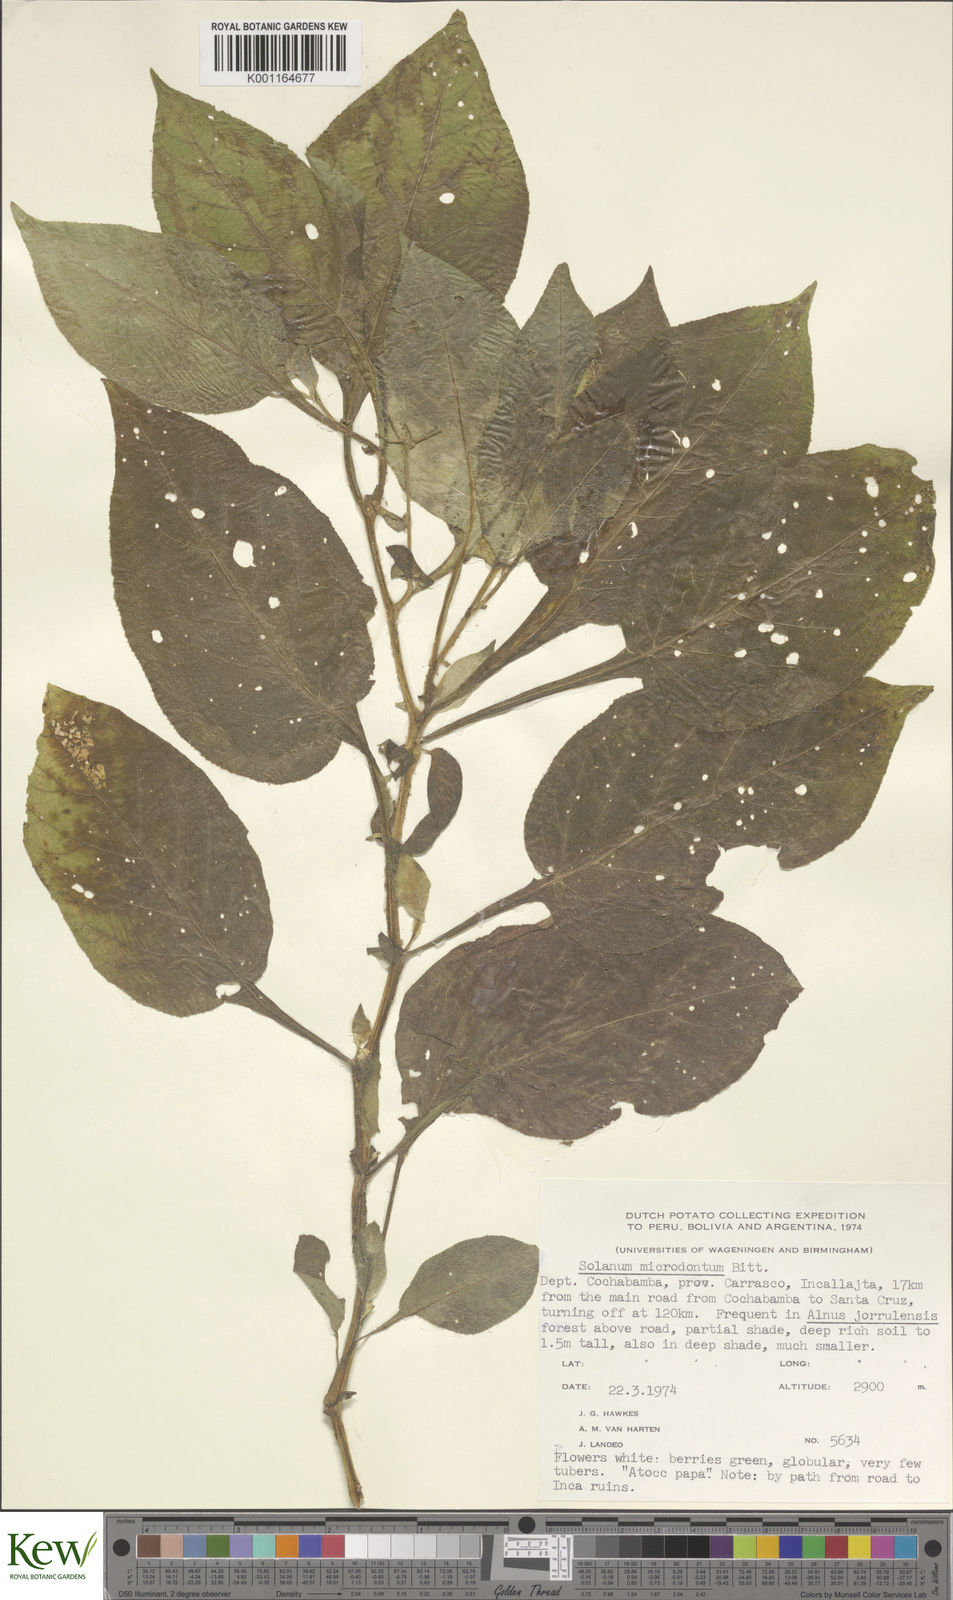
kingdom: Plantae
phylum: Tracheophyta
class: Magnoliopsida
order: Solanales
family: Solanaceae
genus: Solanum
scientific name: Solanum microdontum
